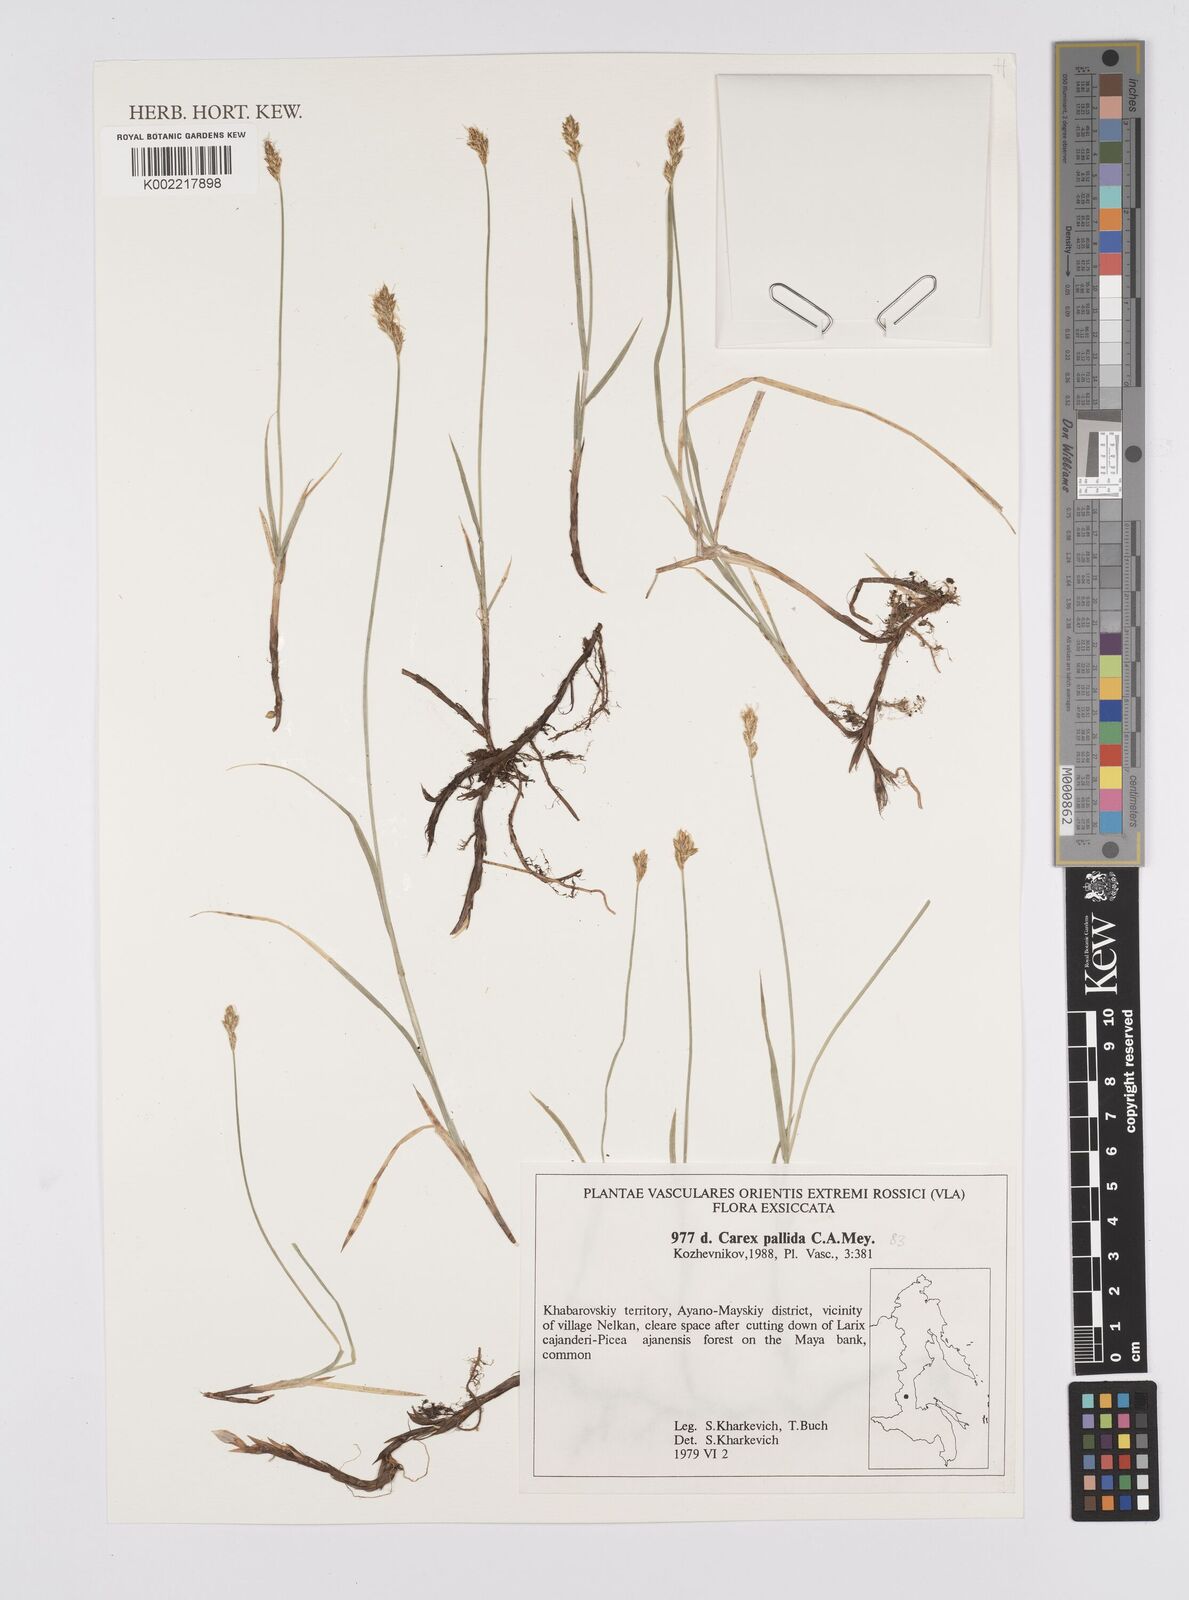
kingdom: Plantae
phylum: Tracheophyta
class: Liliopsida
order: Poales
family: Cyperaceae
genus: Carex
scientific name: Carex accrescens
